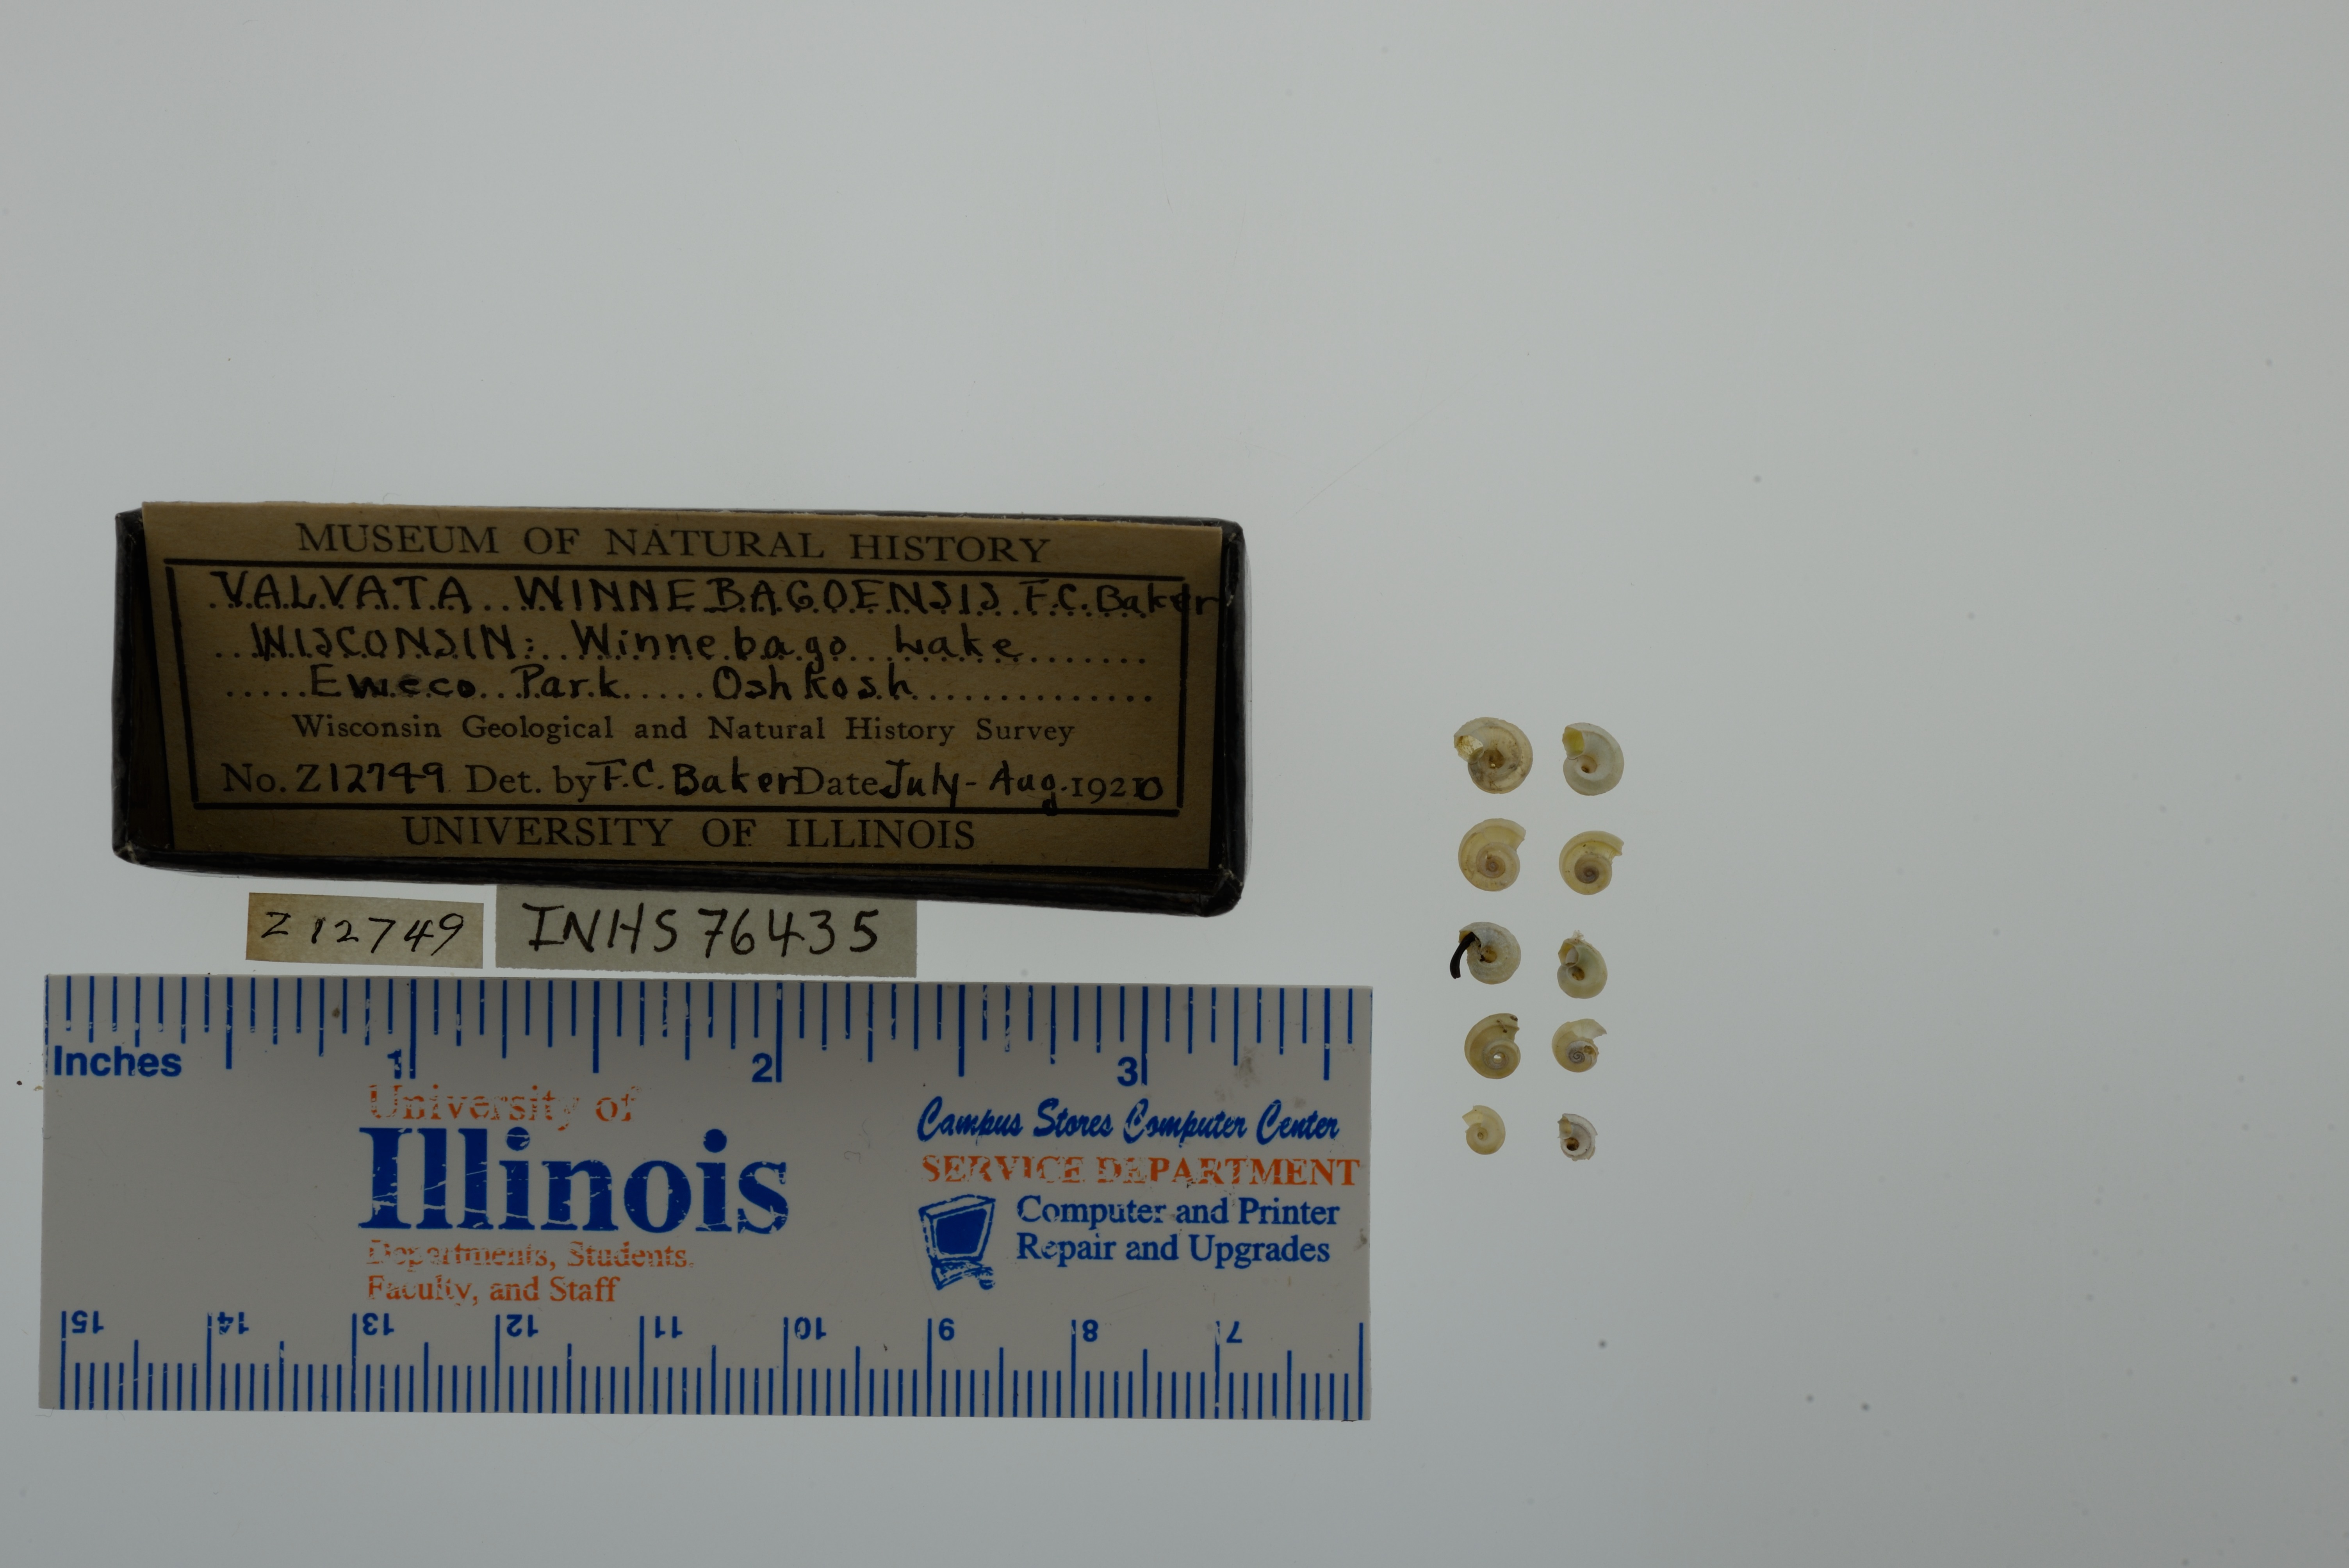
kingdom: Animalia
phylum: Mollusca
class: Gastropoda
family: Valvatidae
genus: Valvata
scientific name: Valvata winnebagoensis
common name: Flanged valvata
